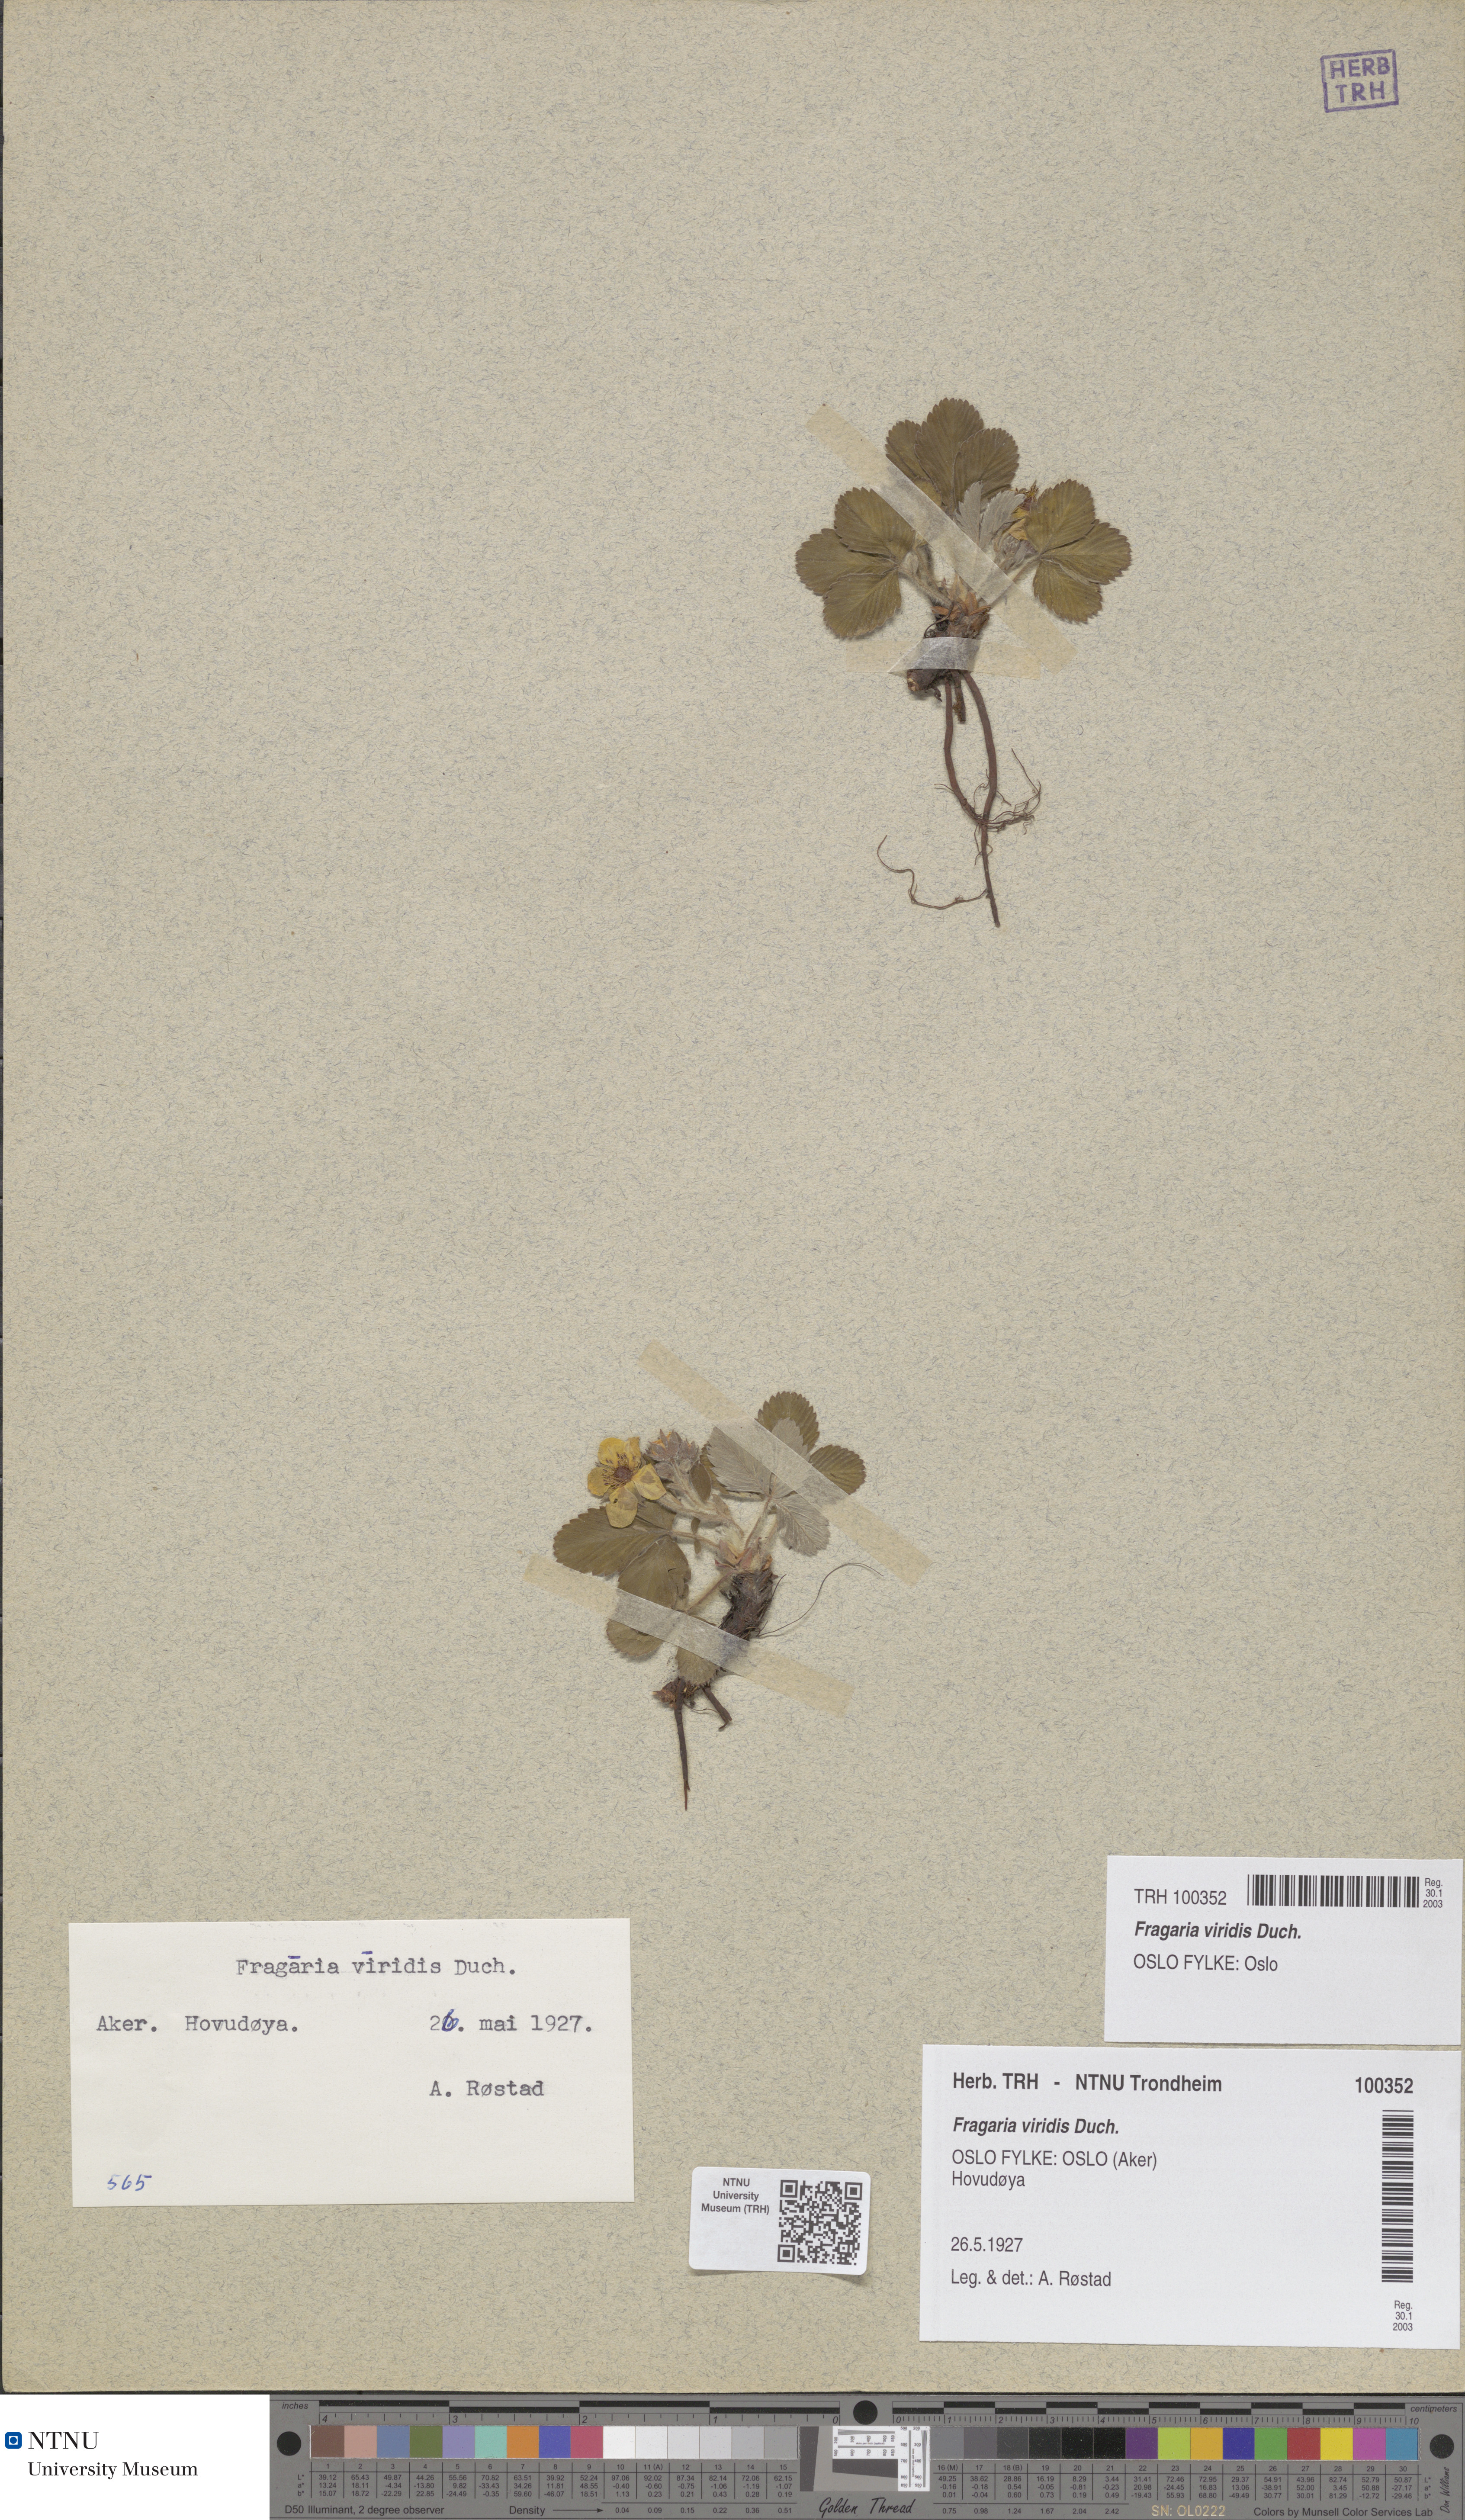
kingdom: Plantae
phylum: Tracheophyta
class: Magnoliopsida
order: Rosales
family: Rosaceae
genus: Fragaria
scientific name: Fragaria viridis
